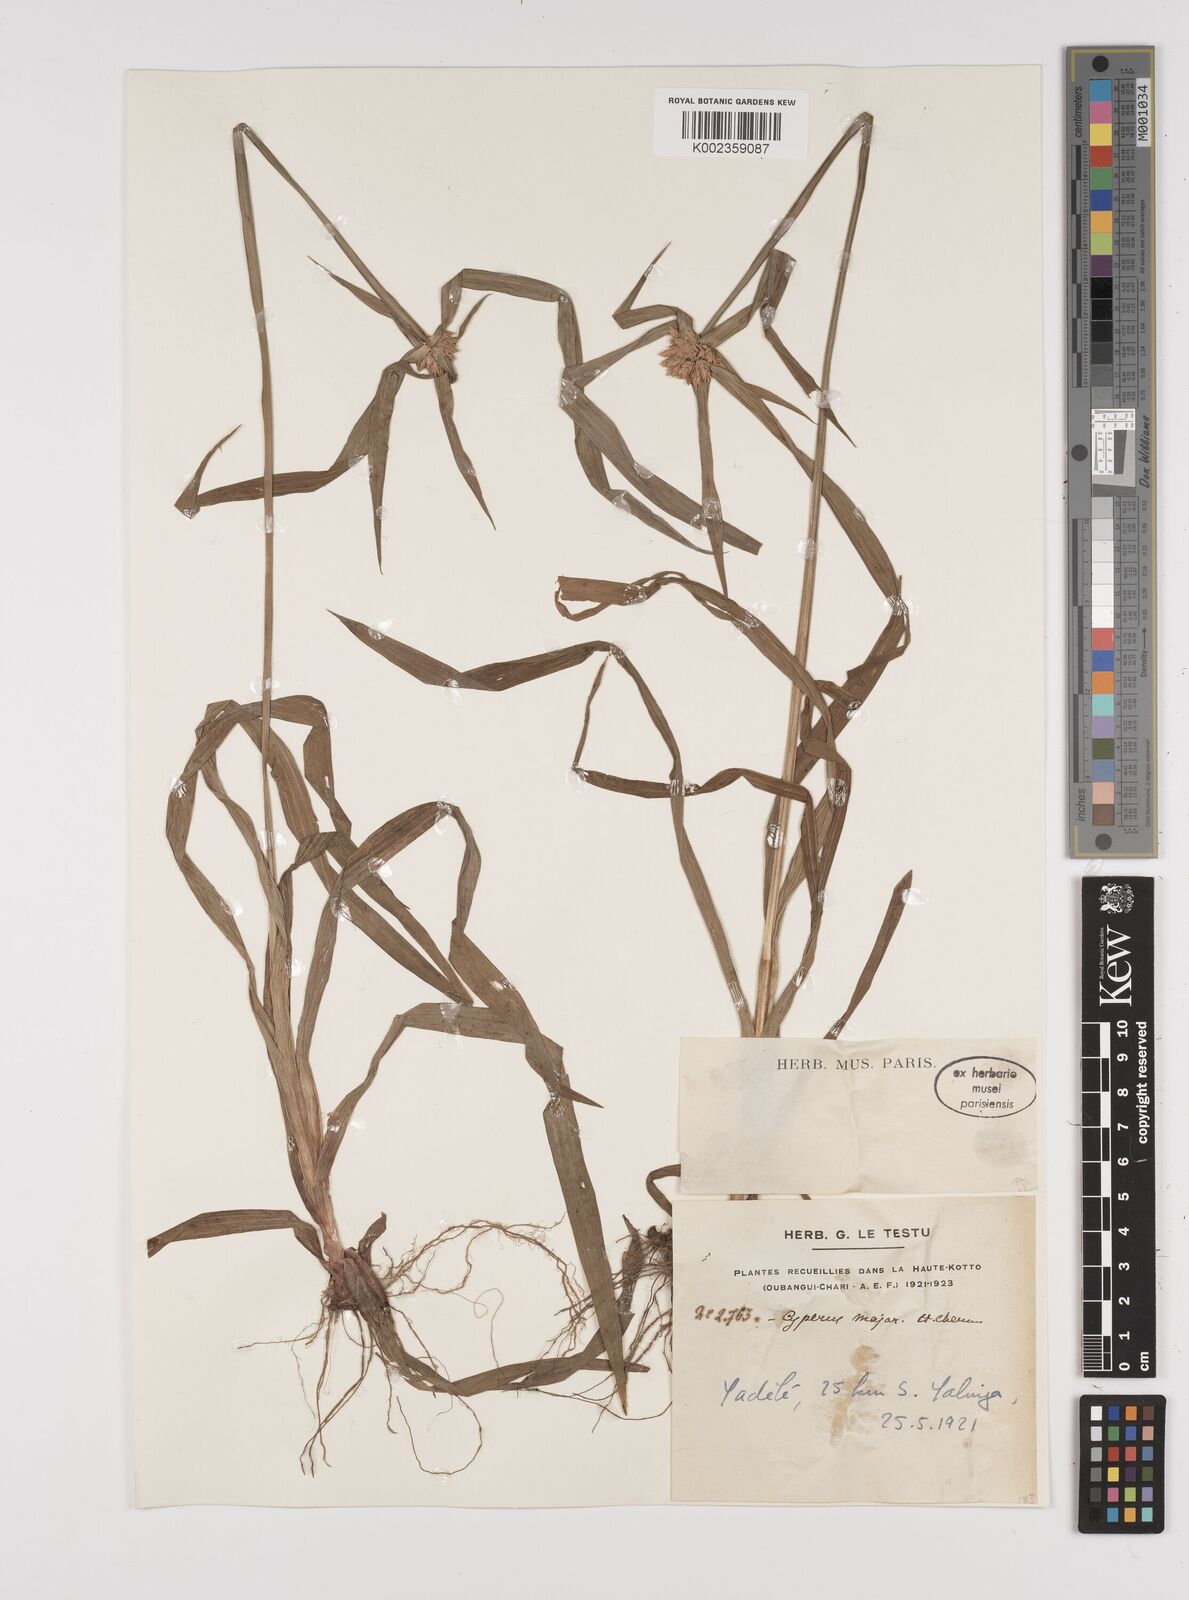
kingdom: Plantae
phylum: Tracheophyta
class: Liliopsida
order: Poales
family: Cyperaceae
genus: Cyperus
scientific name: Cyperus mapanioides
